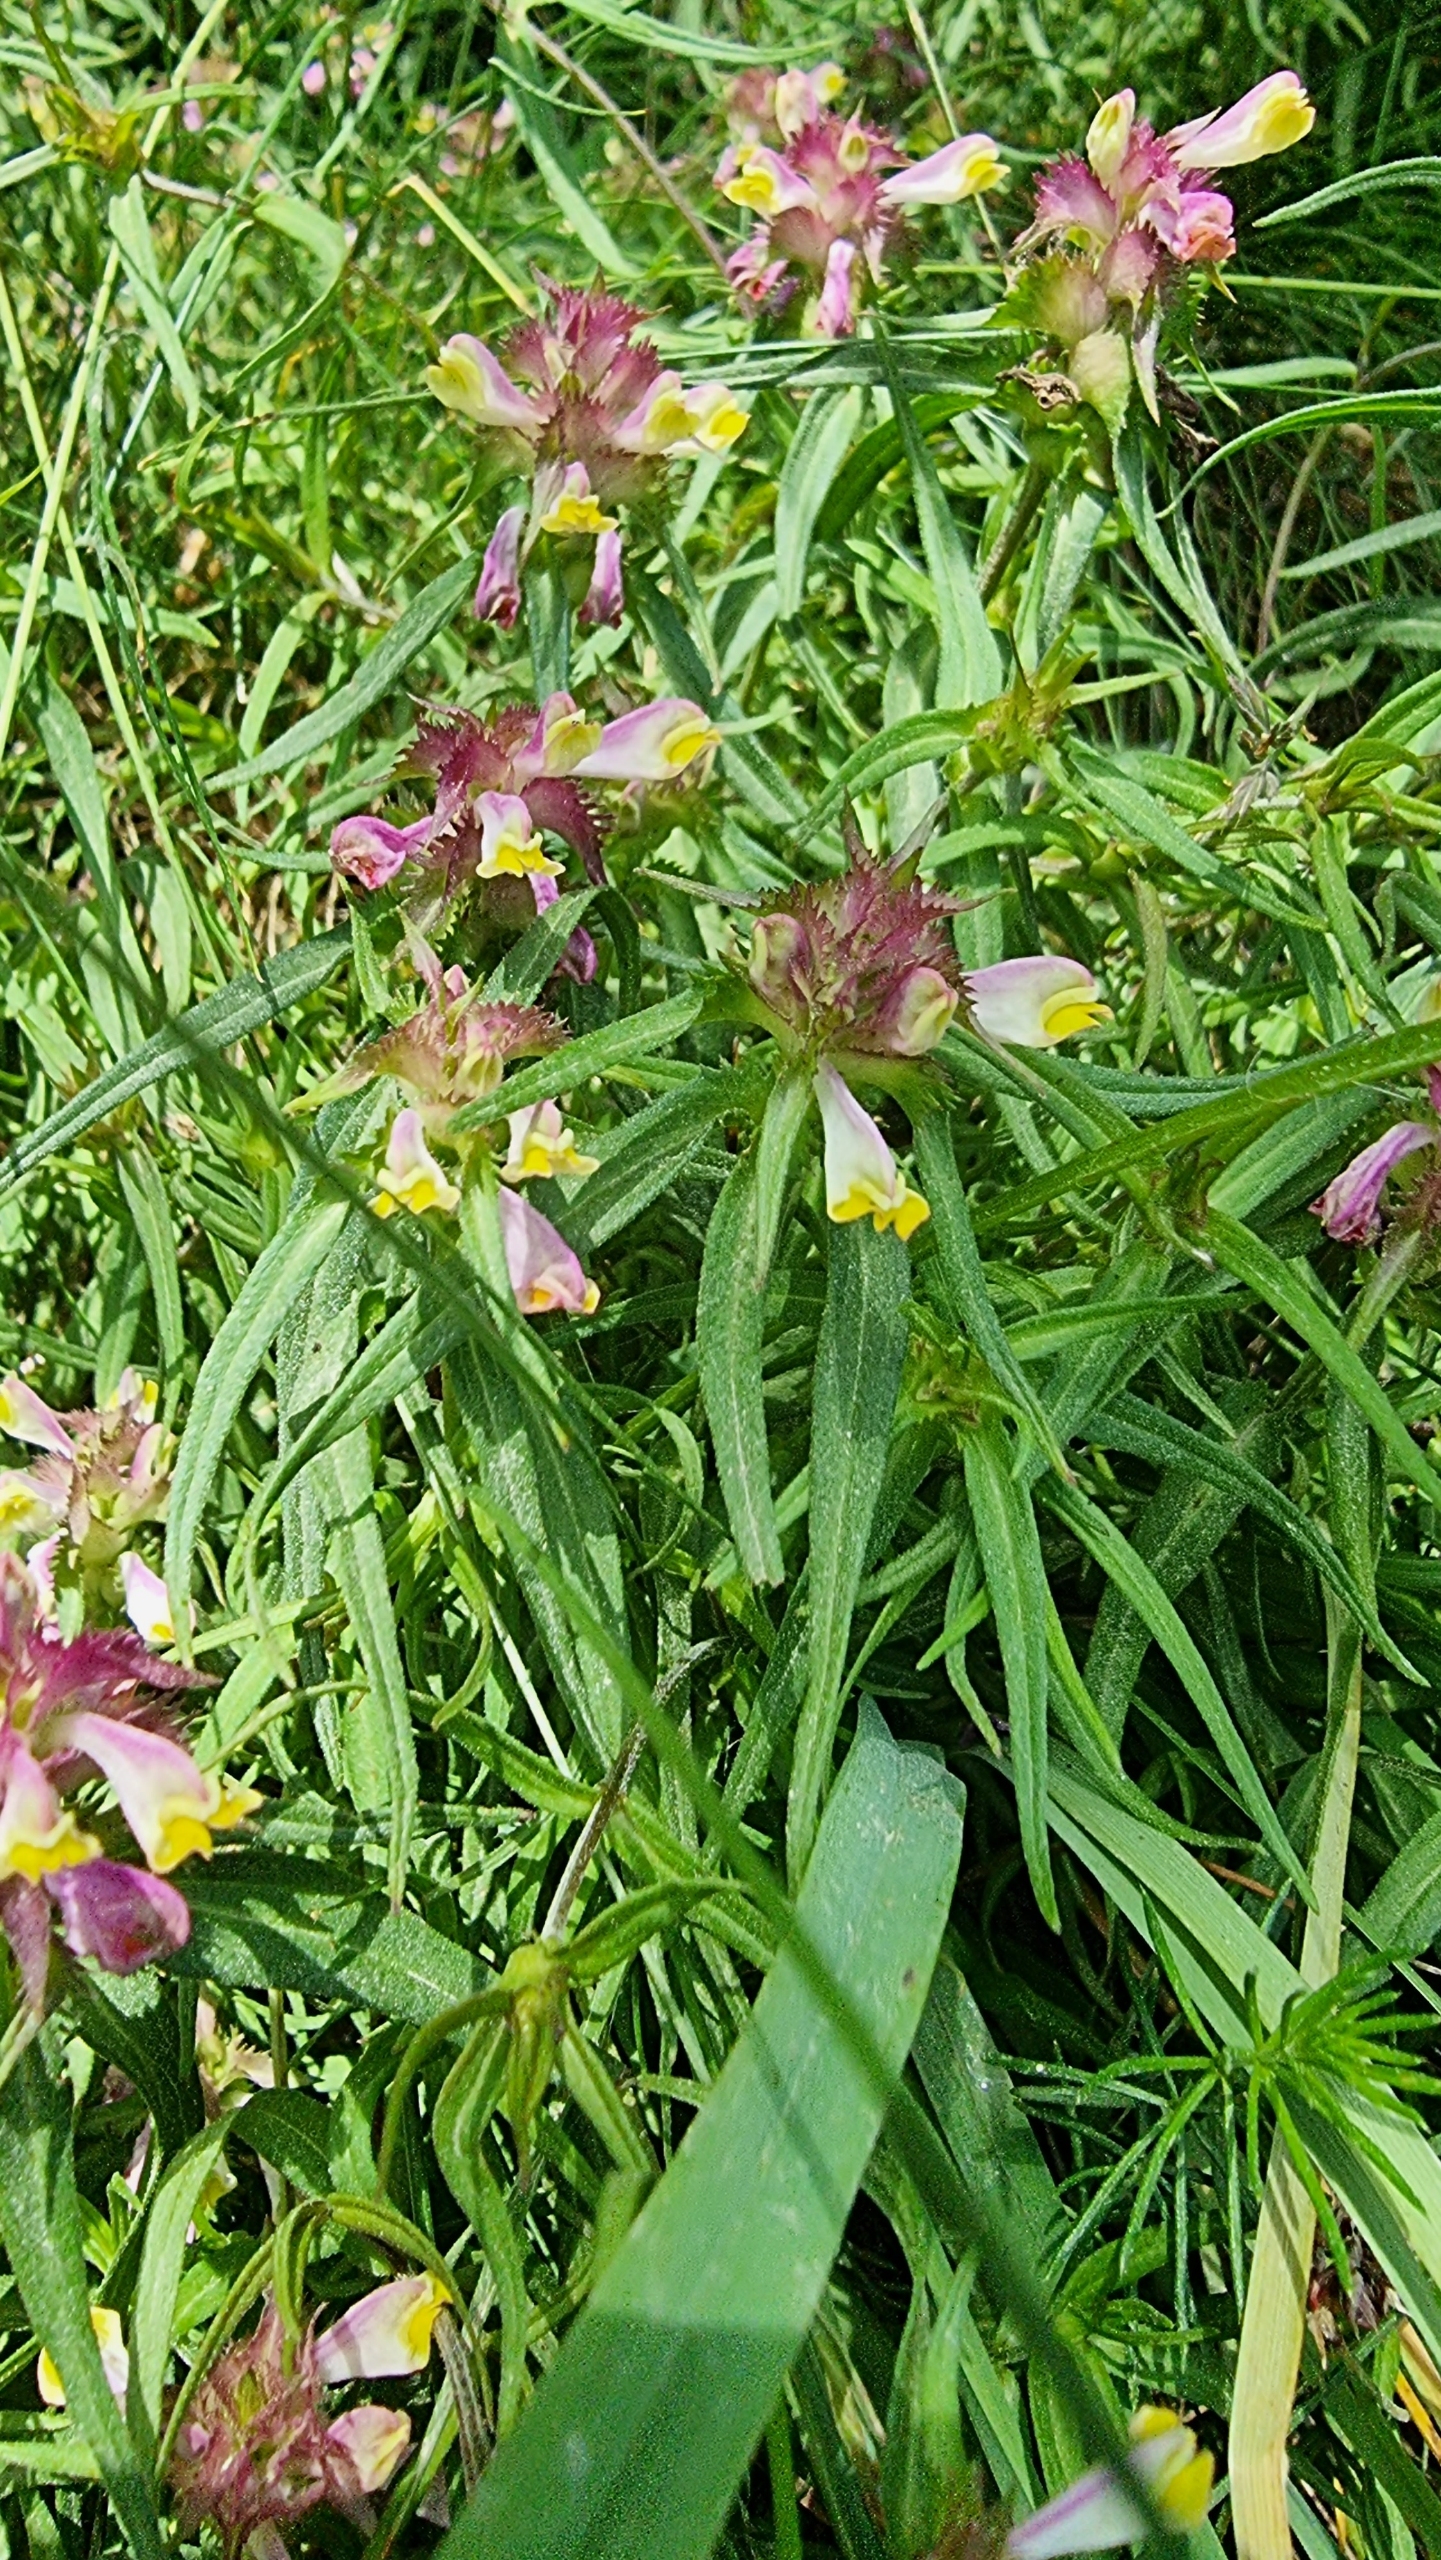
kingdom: Plantae
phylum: Tracheophyta
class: Magnoliopsida
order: Lamiales
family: Orobanchaceae
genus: Melampyrum
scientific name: Melampyrum cristatum
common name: Kantet kohvede
